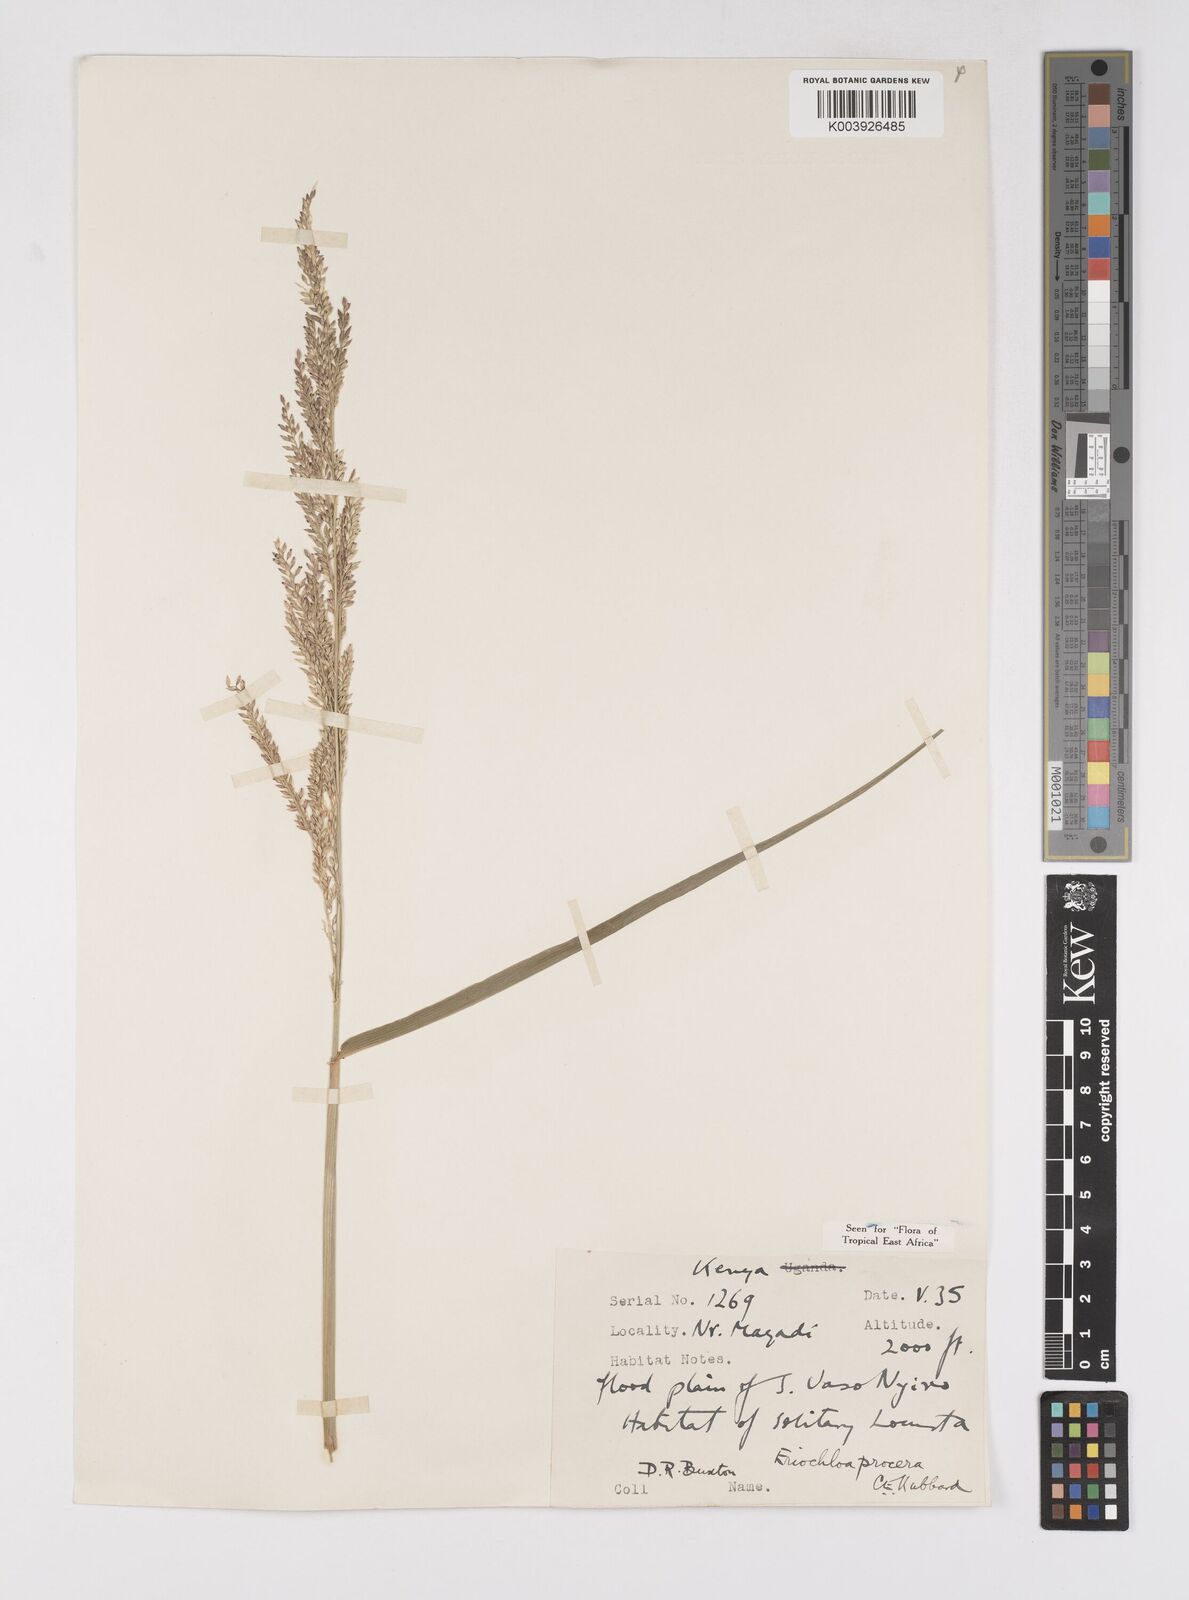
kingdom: Plantae
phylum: Tracheophyta
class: Liliopsida
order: Poales
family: Poaceae
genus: Eriochloa
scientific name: Eriochloa procera
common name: Spring grass
